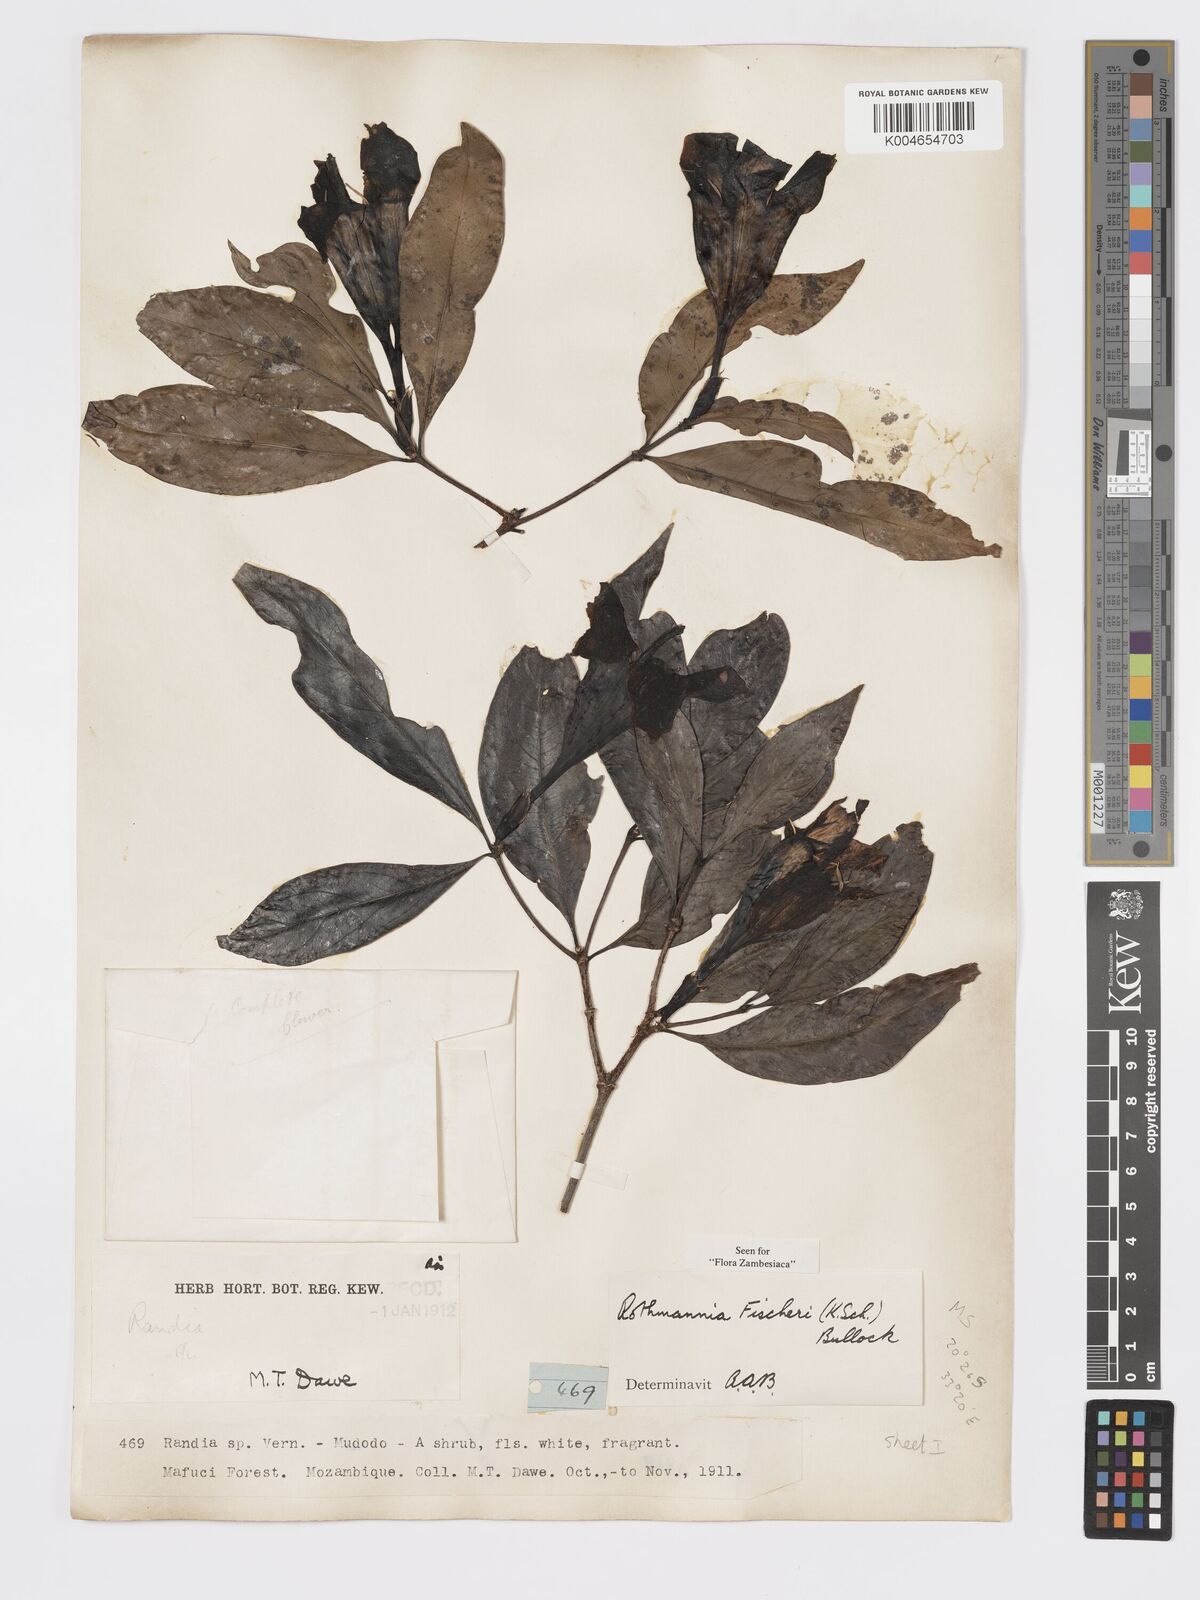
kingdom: Plantae
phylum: Tracheophyta
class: Magnoliopsida
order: Gentianales
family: Rubiaceae
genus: Rothmannia
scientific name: Rothmannia fischeri
